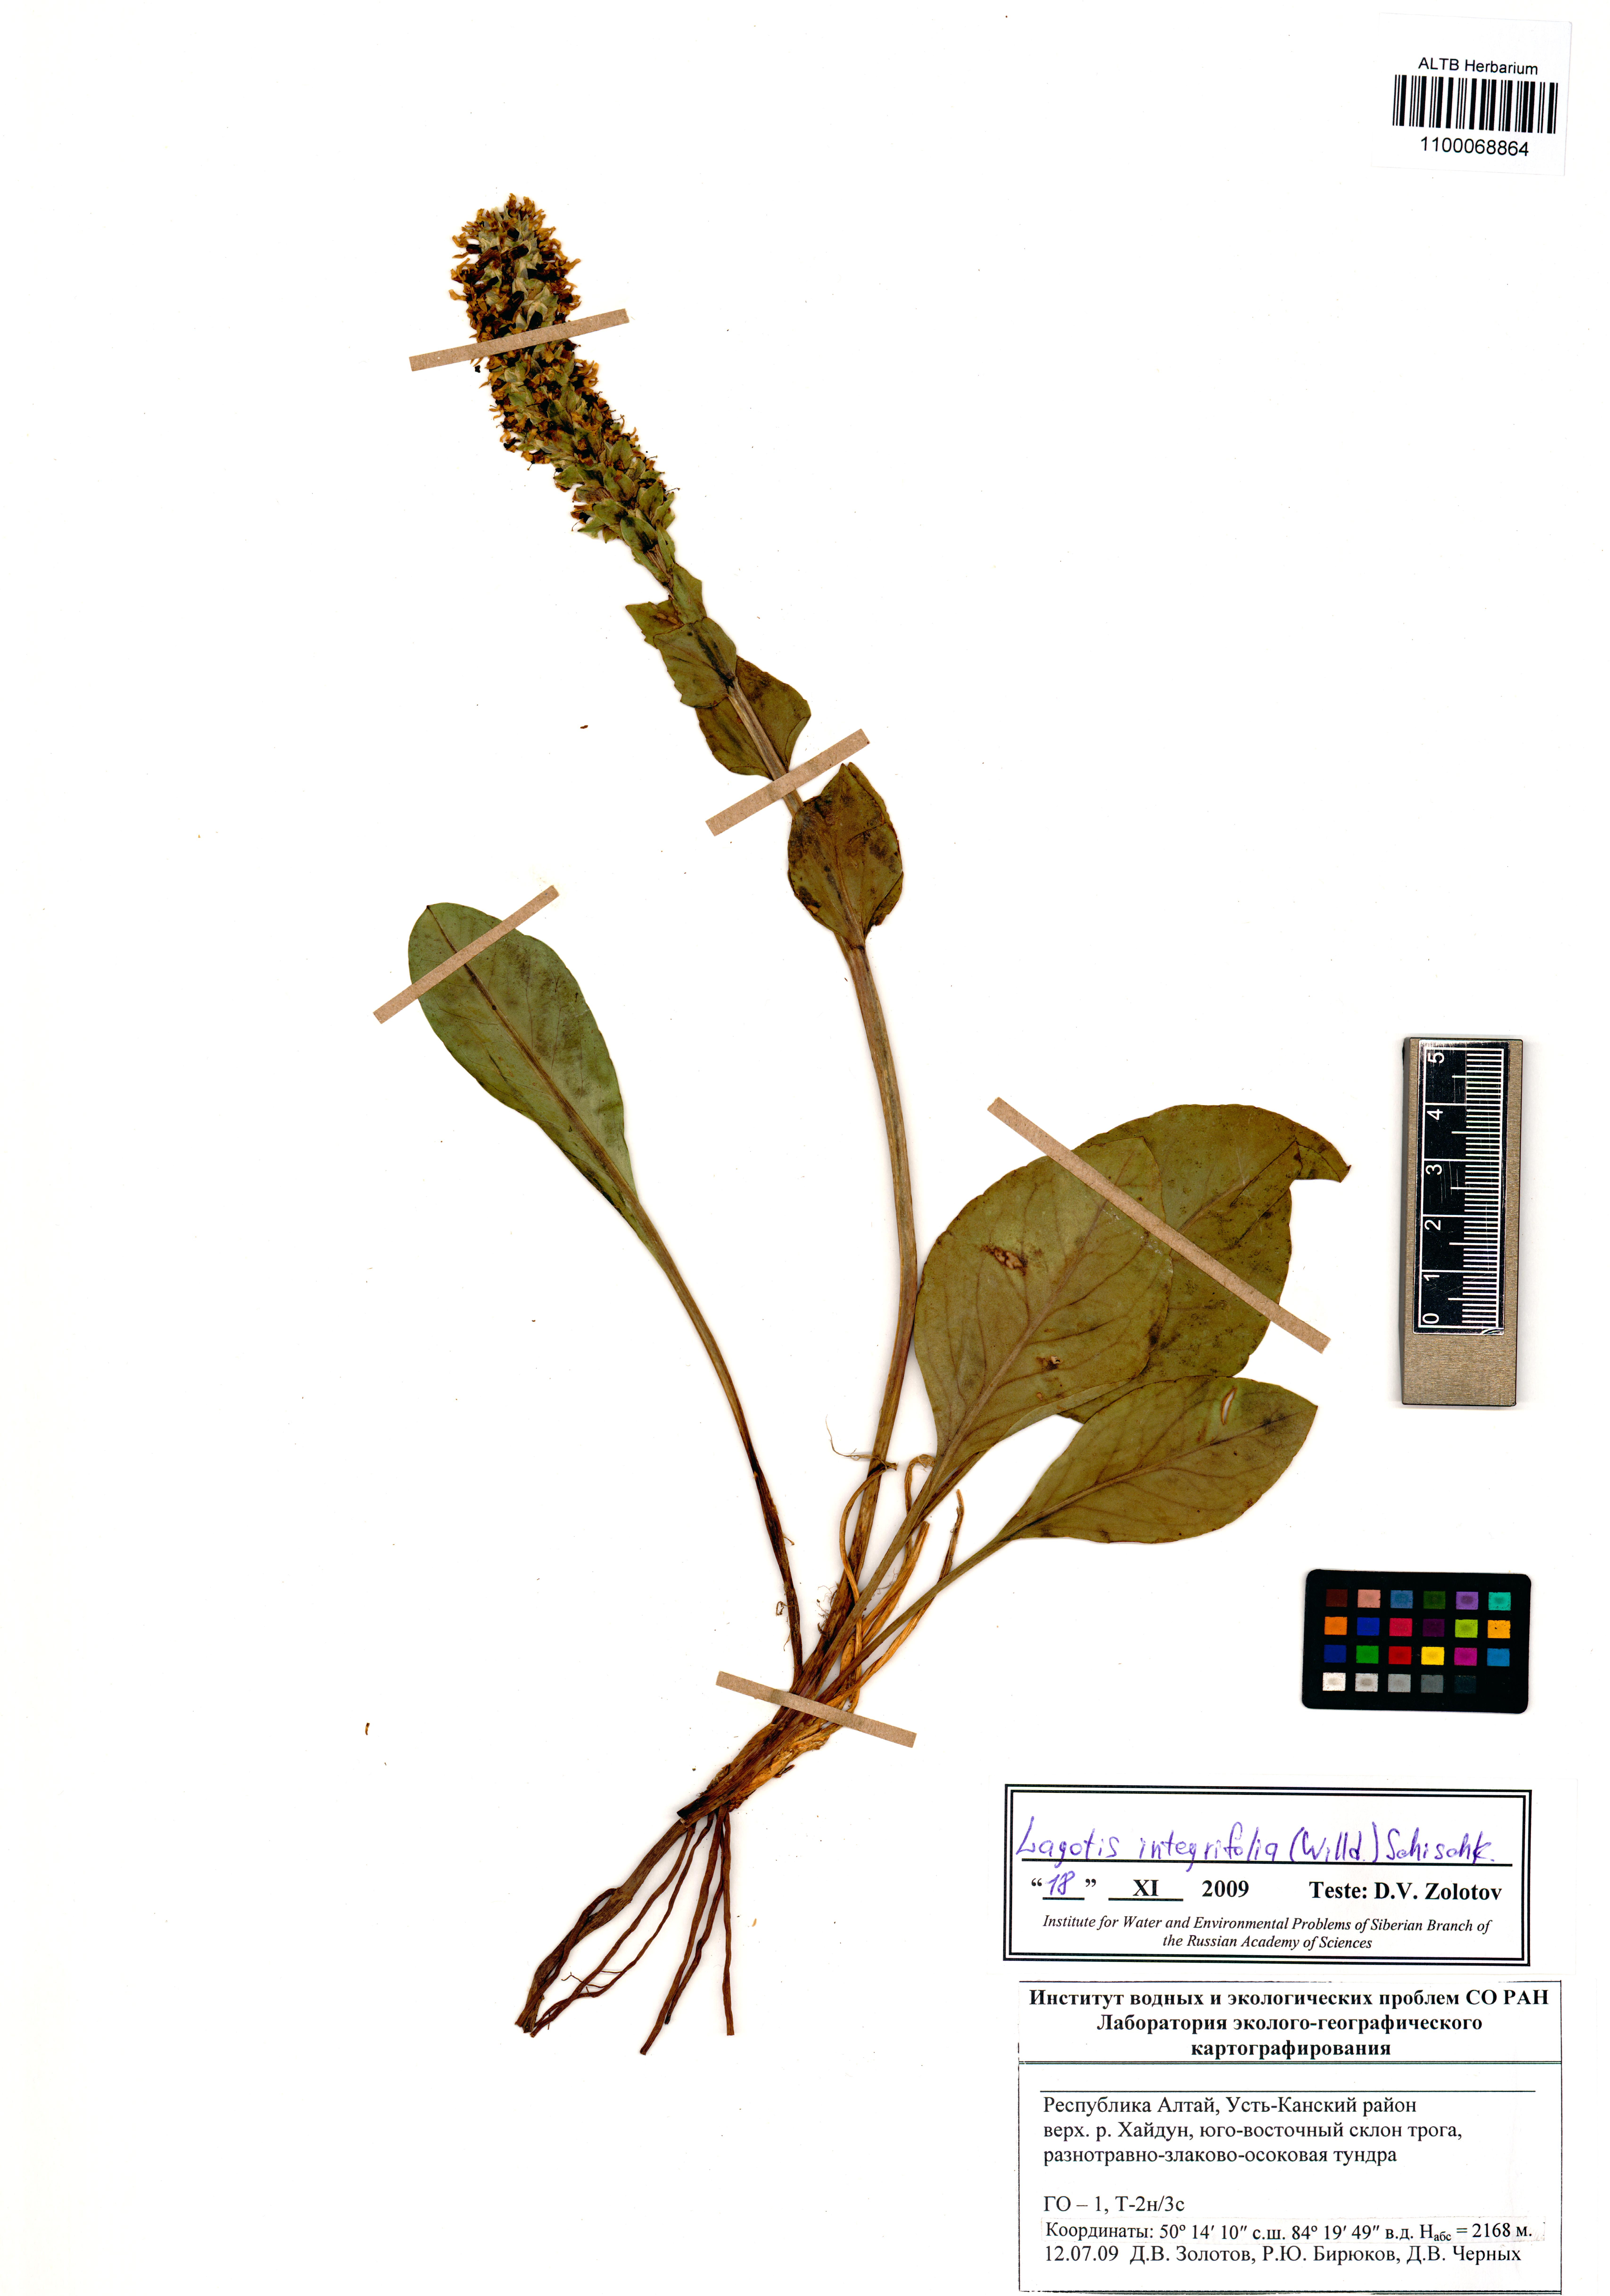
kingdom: Plantae
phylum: Tracheophyta
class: Magnoliopsida
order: Lamiales
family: Plantaginaceae
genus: Lagotis
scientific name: Lagotis integrifolia
